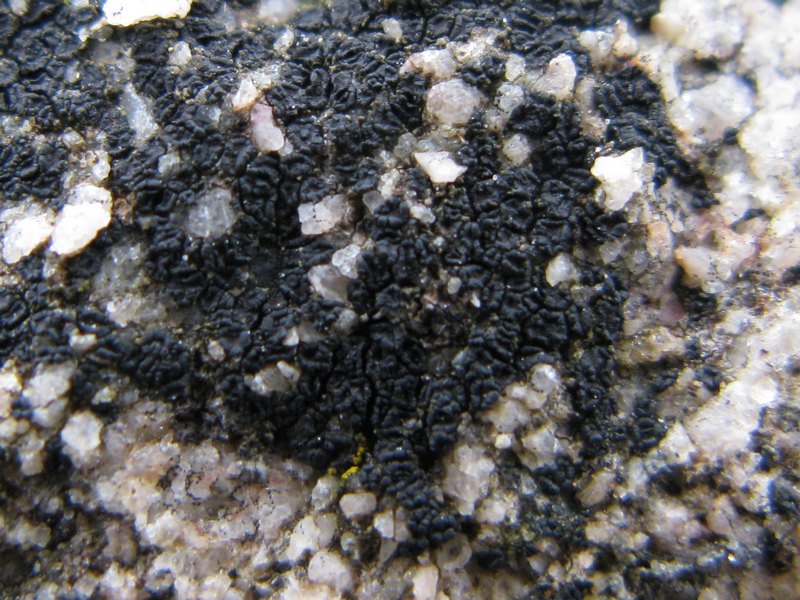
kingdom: Fungi
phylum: Ascomycota
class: Lecanoromycetes
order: Acarosporales
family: Acarosporaceae
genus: Acarospora
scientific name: Acarospora privigna
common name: sort foldekantlav
